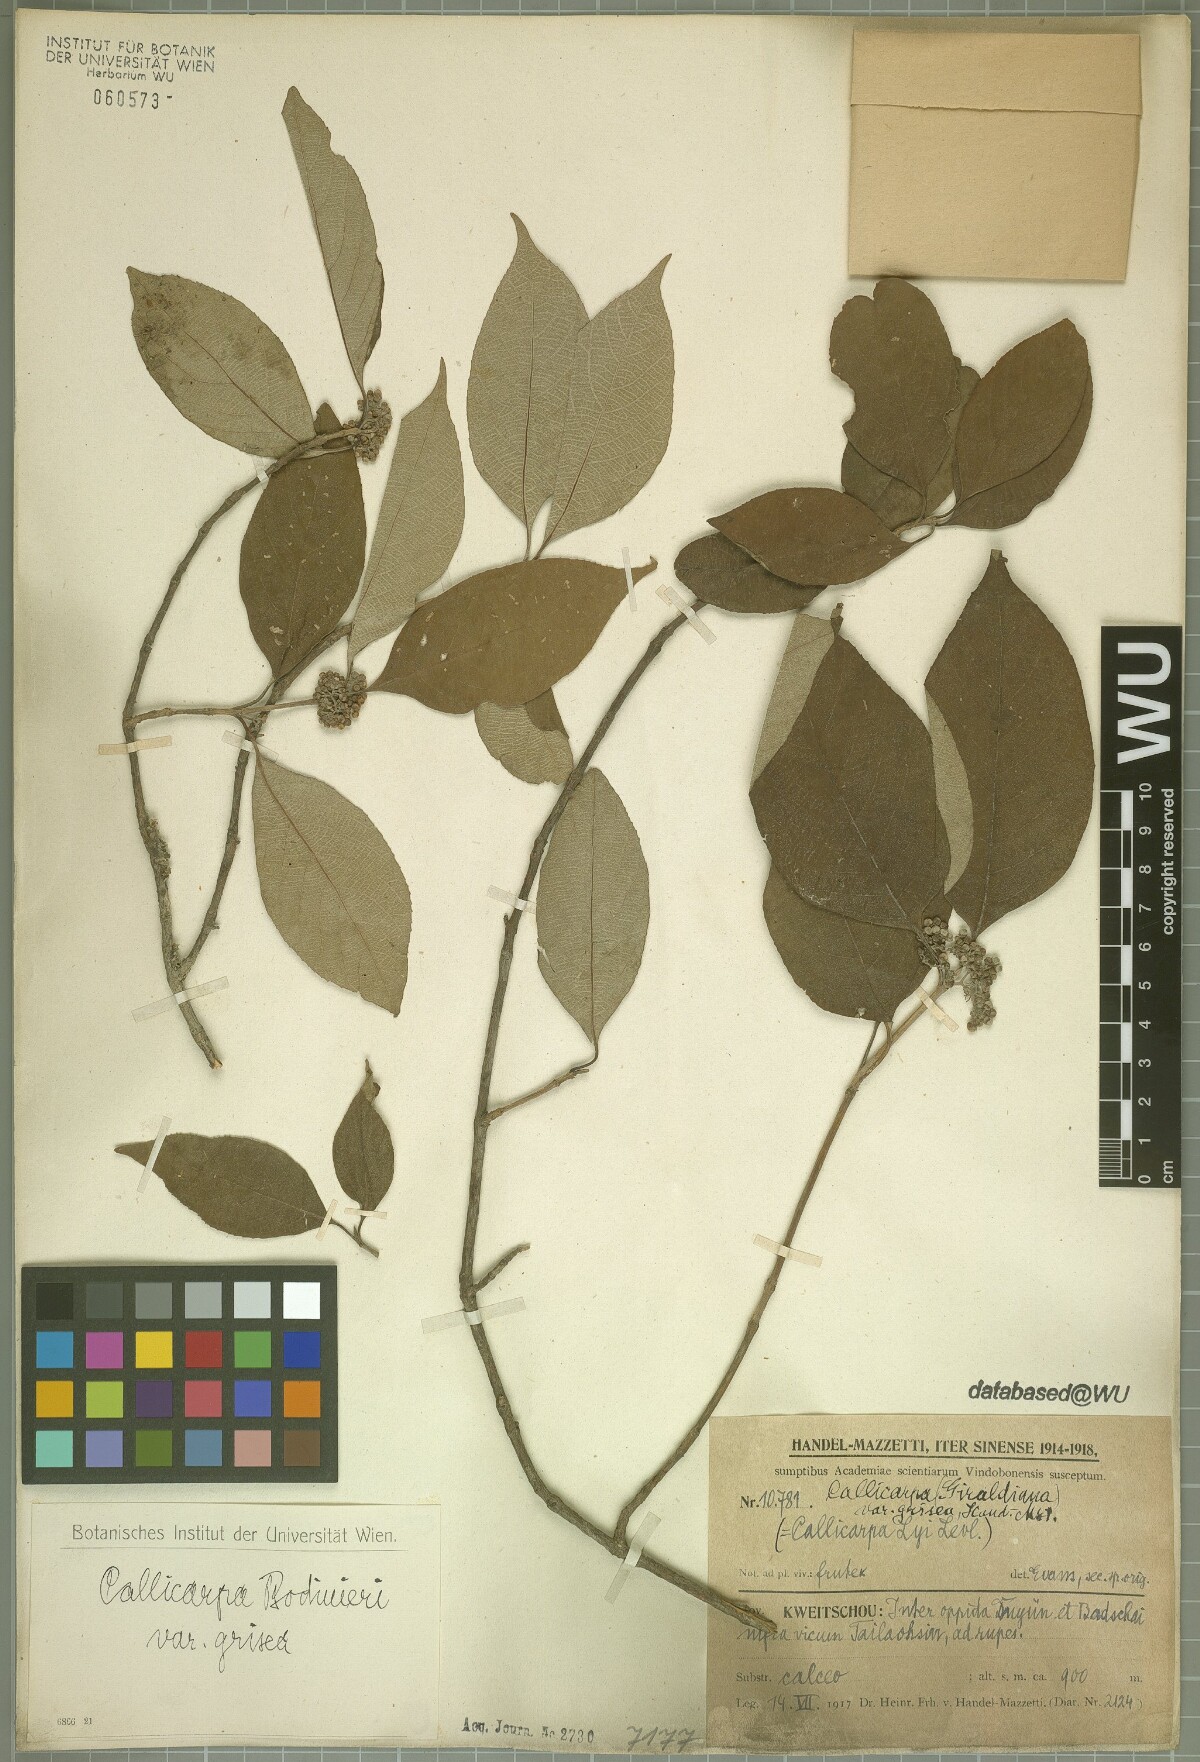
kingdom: Plantae
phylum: Tracheophyta
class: Magnoliopsida
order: Lamiales
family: Lamiaceae
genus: Callicarpa
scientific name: Callicarpa bodinieri
